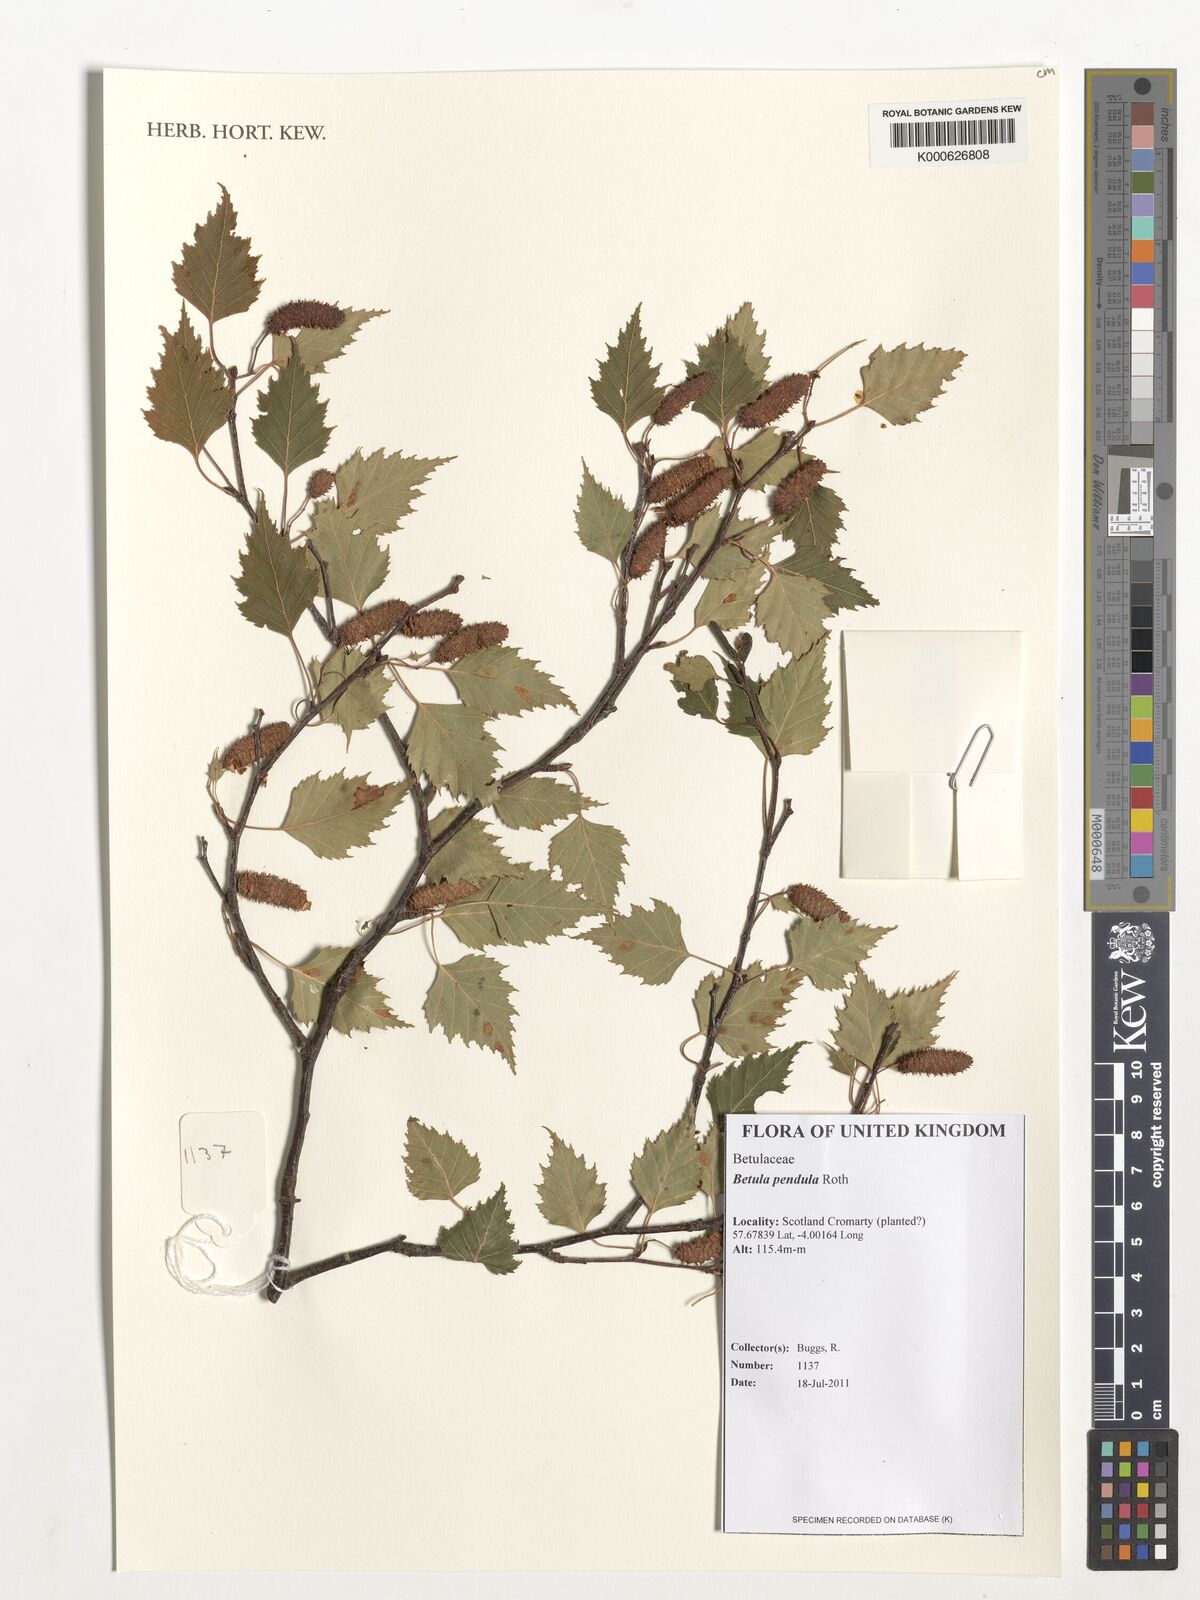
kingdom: Plantae
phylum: Tracheophyta
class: Magnoliopsida
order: Fagales
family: Betulaceae
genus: Betula
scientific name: Betula pendula
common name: Silver birch
